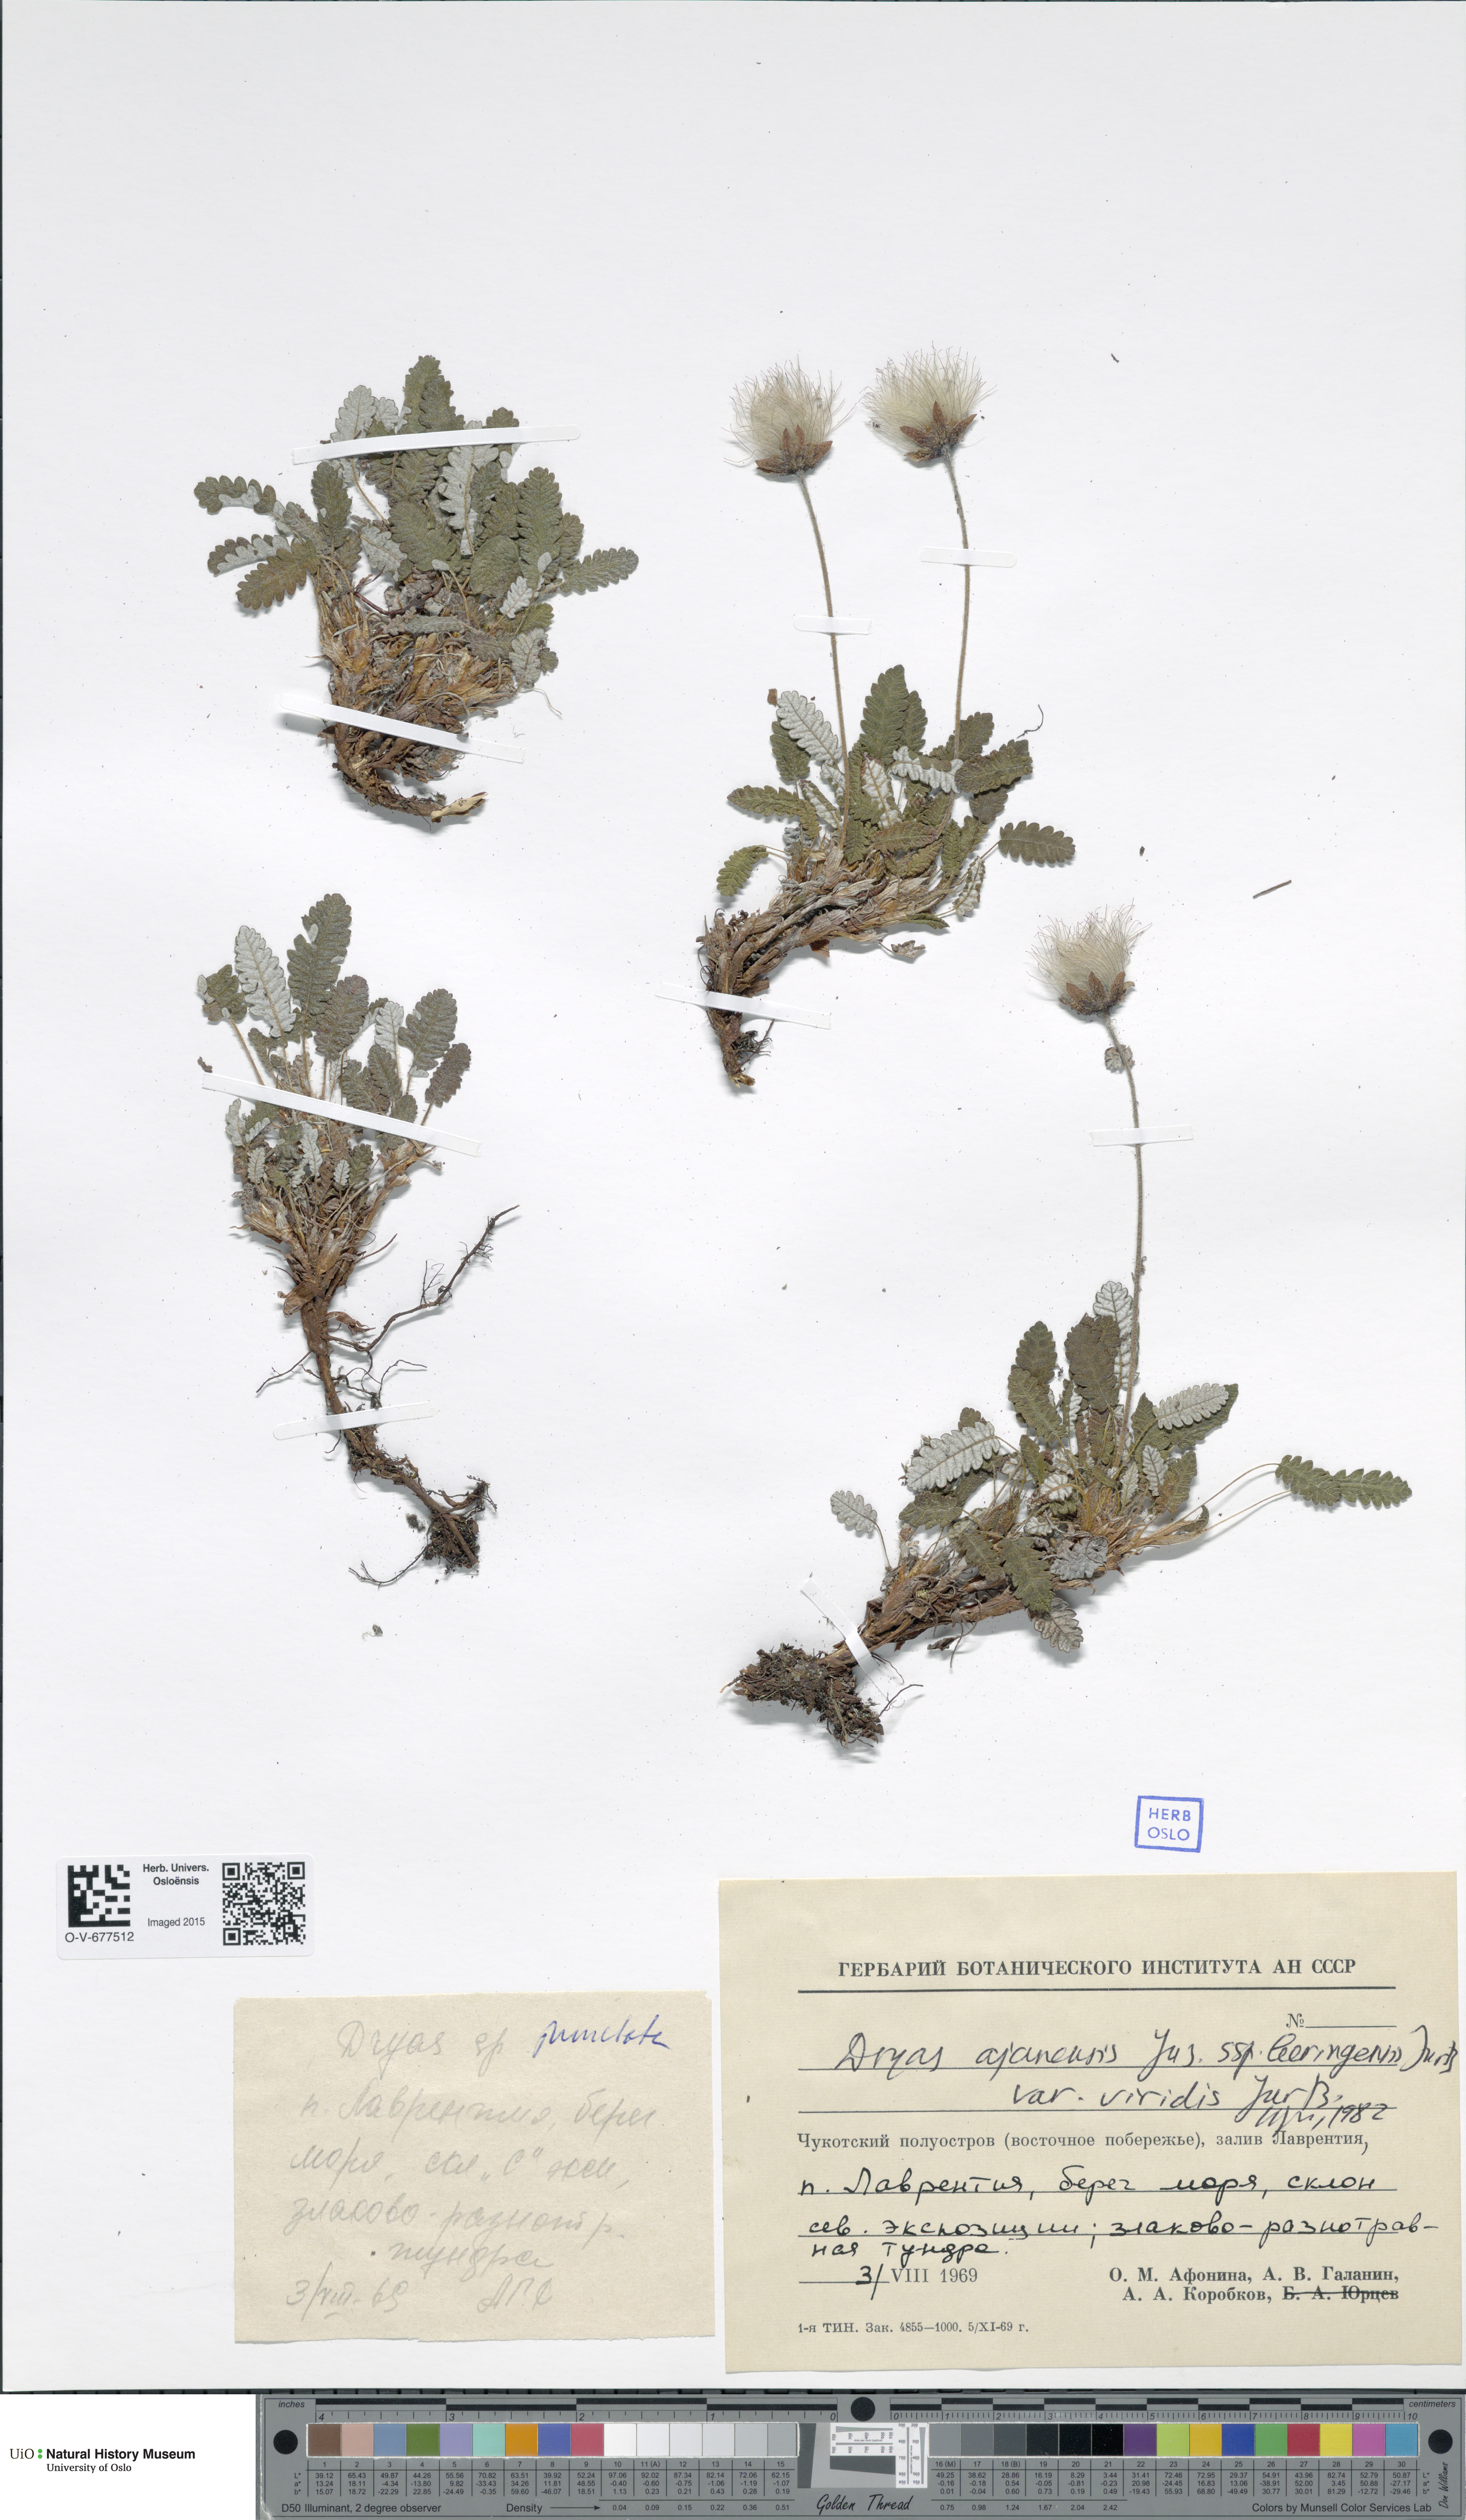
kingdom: Plantae
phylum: Tracheophyta
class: Magnoliopsida
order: Rosales
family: Rosaceae
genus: Dryas
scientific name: Dryas octopetala
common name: Eight-petal mountain-avens
